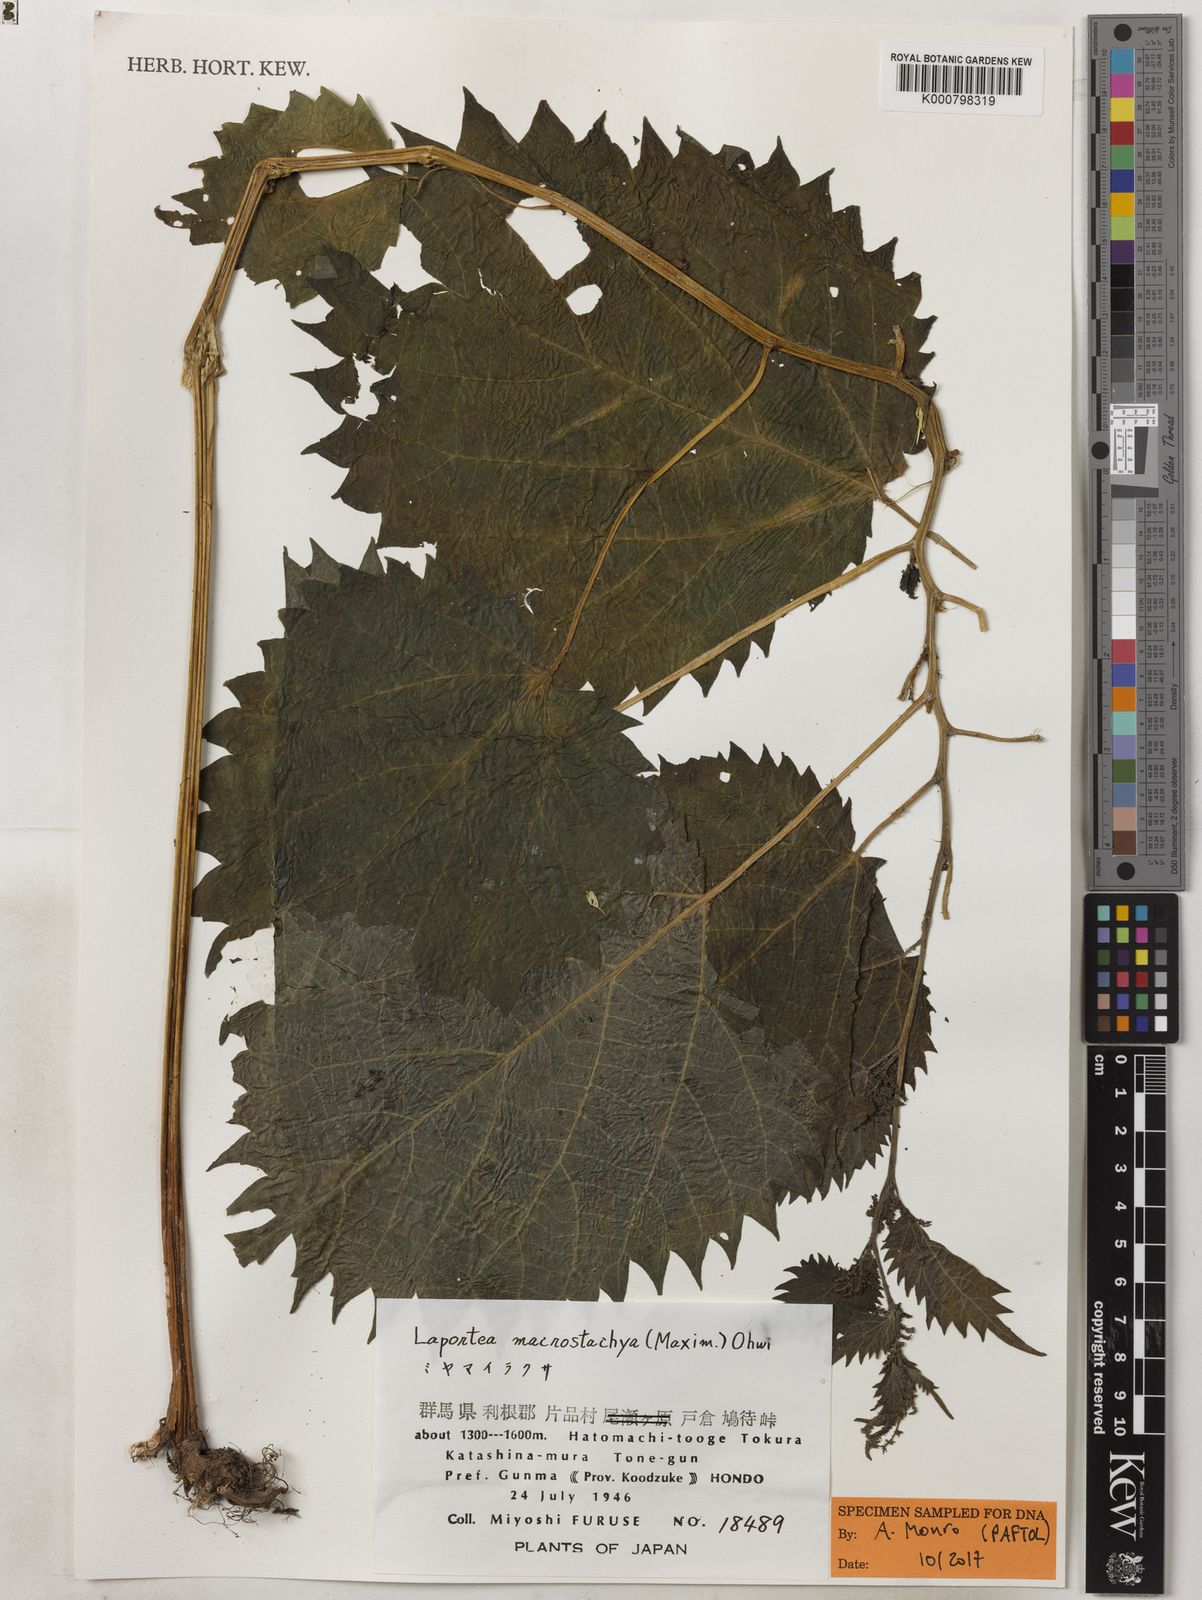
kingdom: Plantae
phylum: Tracheophyta
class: Magnoliopsida
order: Rosales
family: Urticaceae
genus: Laportea
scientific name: Laportea cuspidata
